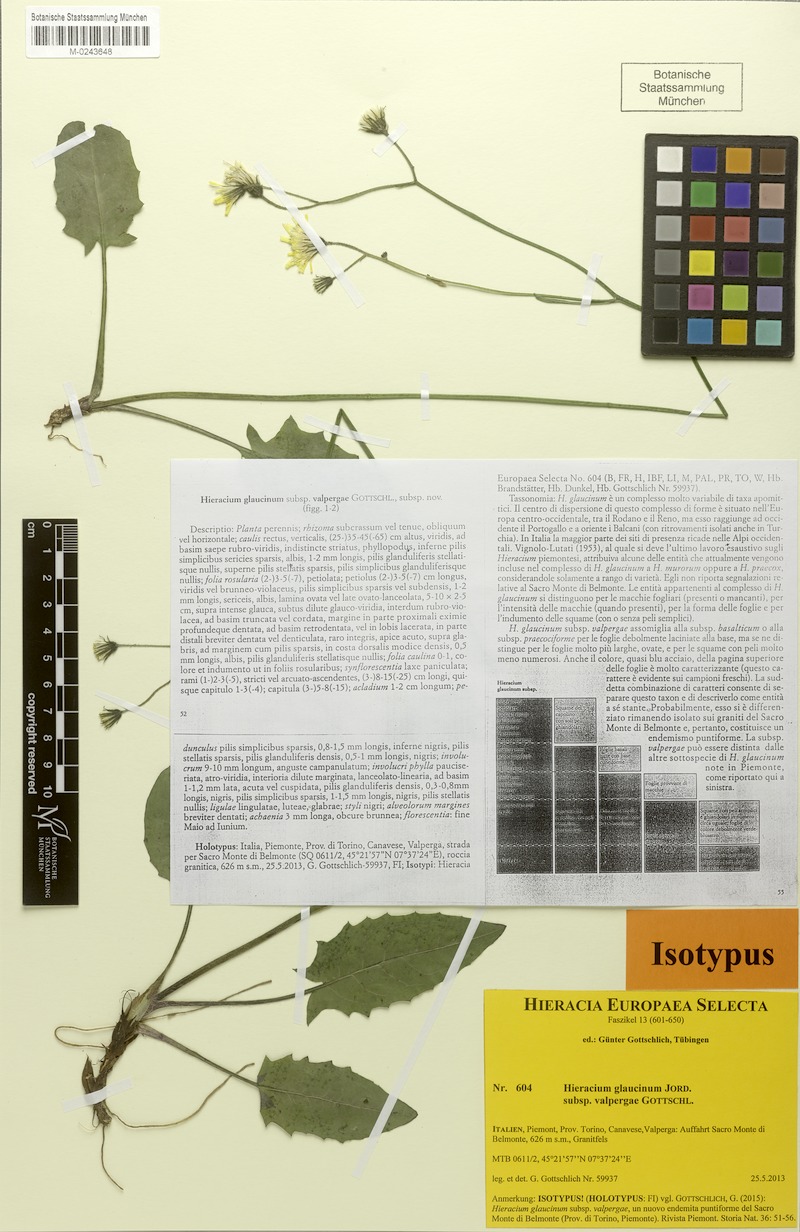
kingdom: Plantae
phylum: Tracheophyta
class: Magnoliopsida
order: Asterales
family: Asteraceae
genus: Hieracium
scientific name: Hieracium glaucinum
